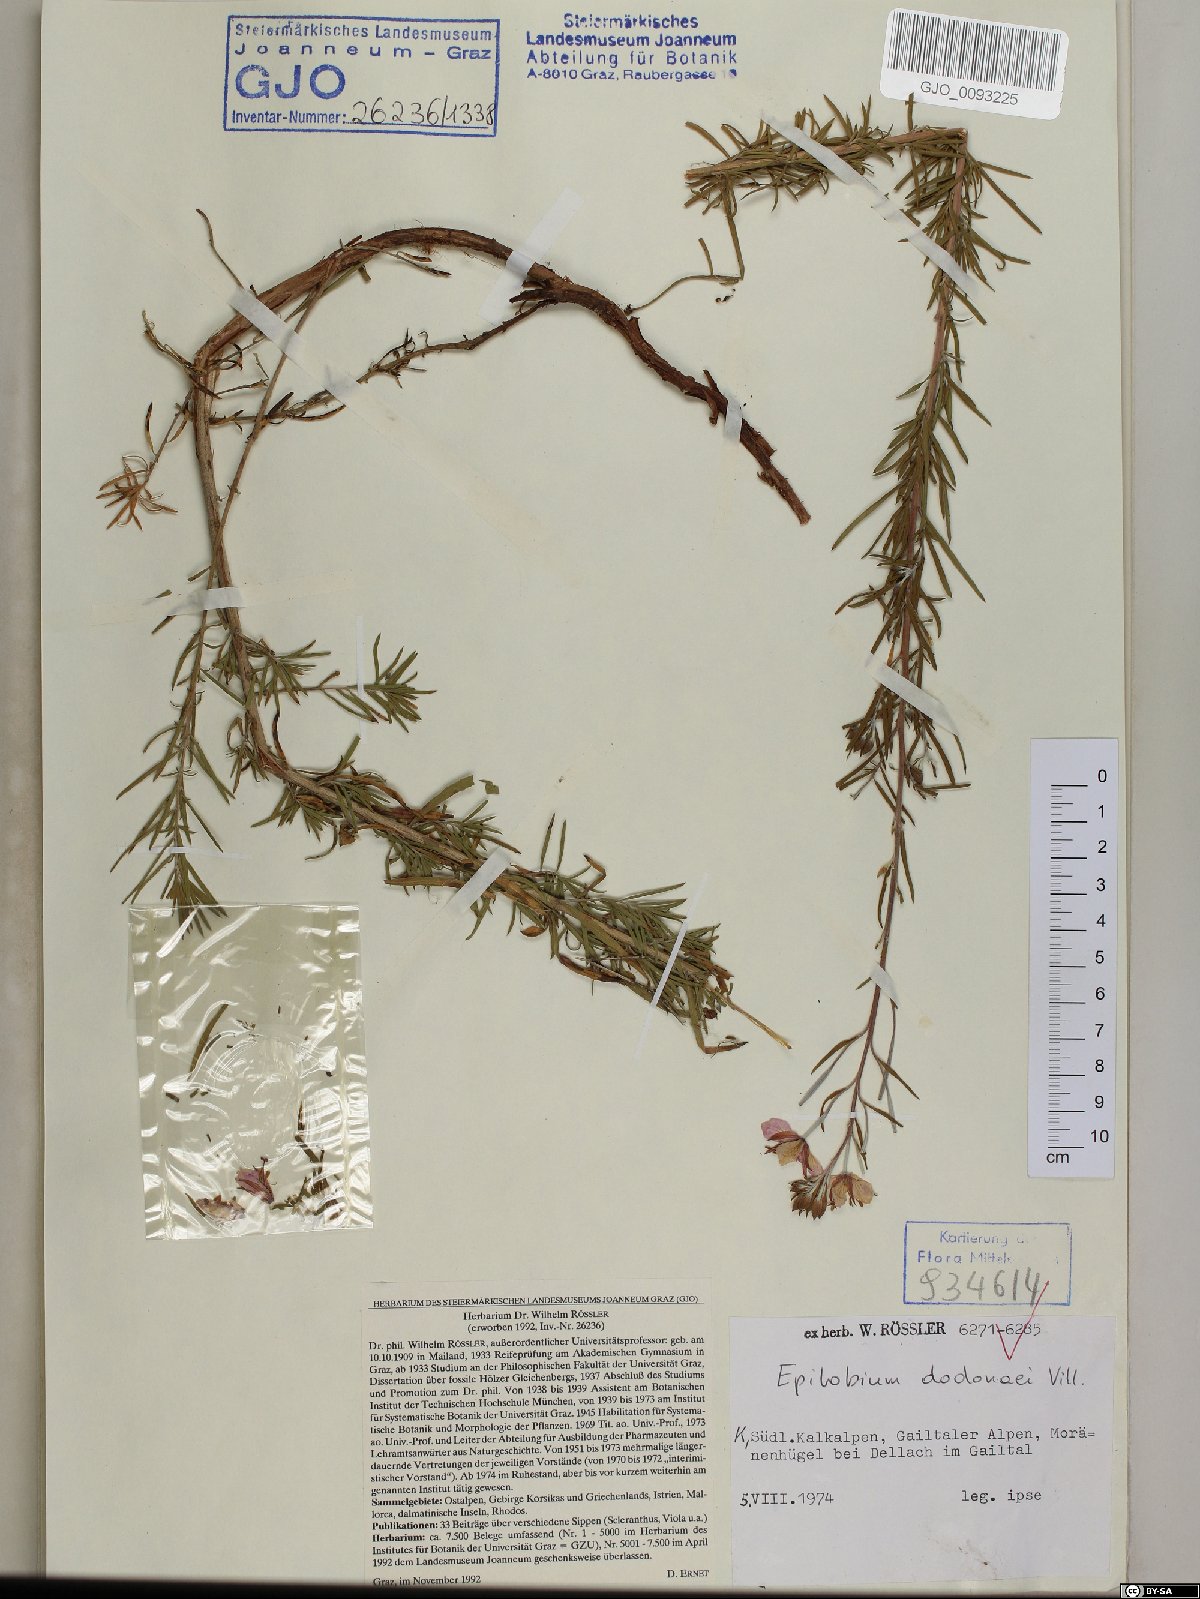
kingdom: Plantae
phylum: Tracheophyta
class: Magnoliopsida
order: Myrtales
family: Onagraceae
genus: Chamaenerion
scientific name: Chamaenerion dodonaei
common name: Rosemary-leaved willowherb
